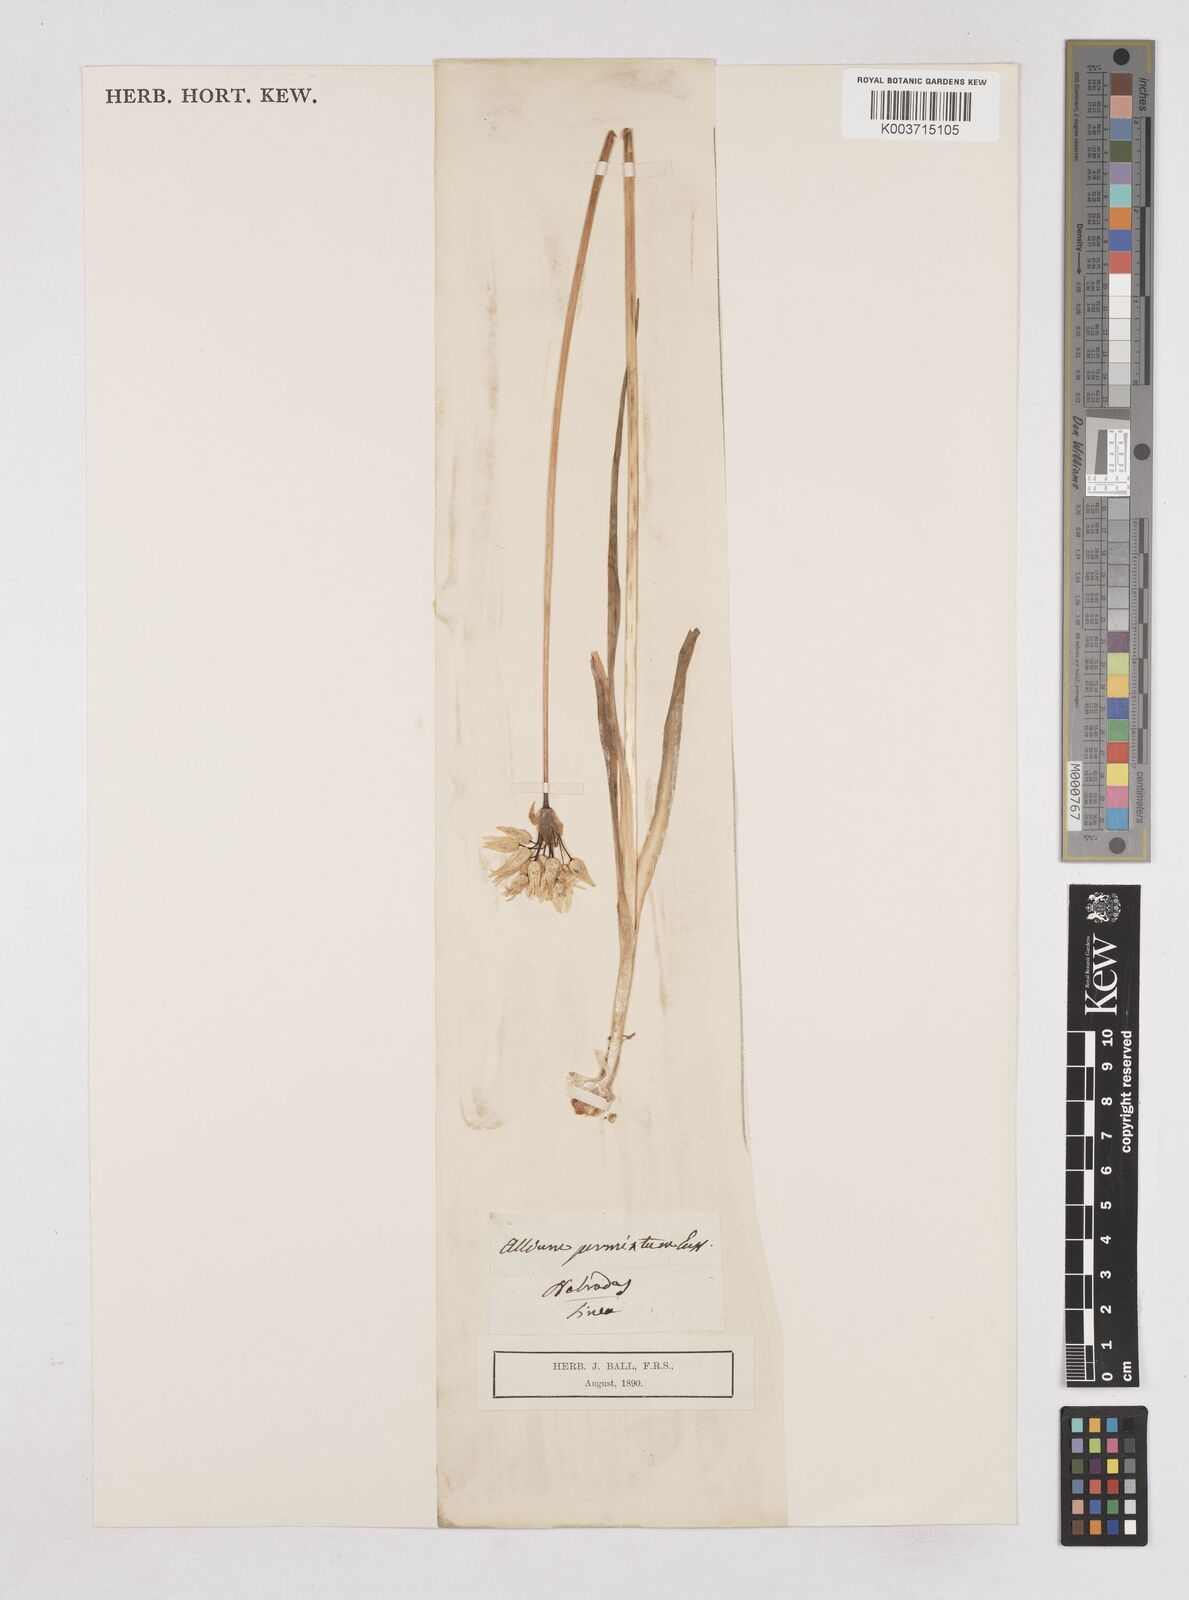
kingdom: Plantae
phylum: Tracheophyta
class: Liliopsida
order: Asparagales
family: Amaryllidaceae
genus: Allium
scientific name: Allium phthioticum
